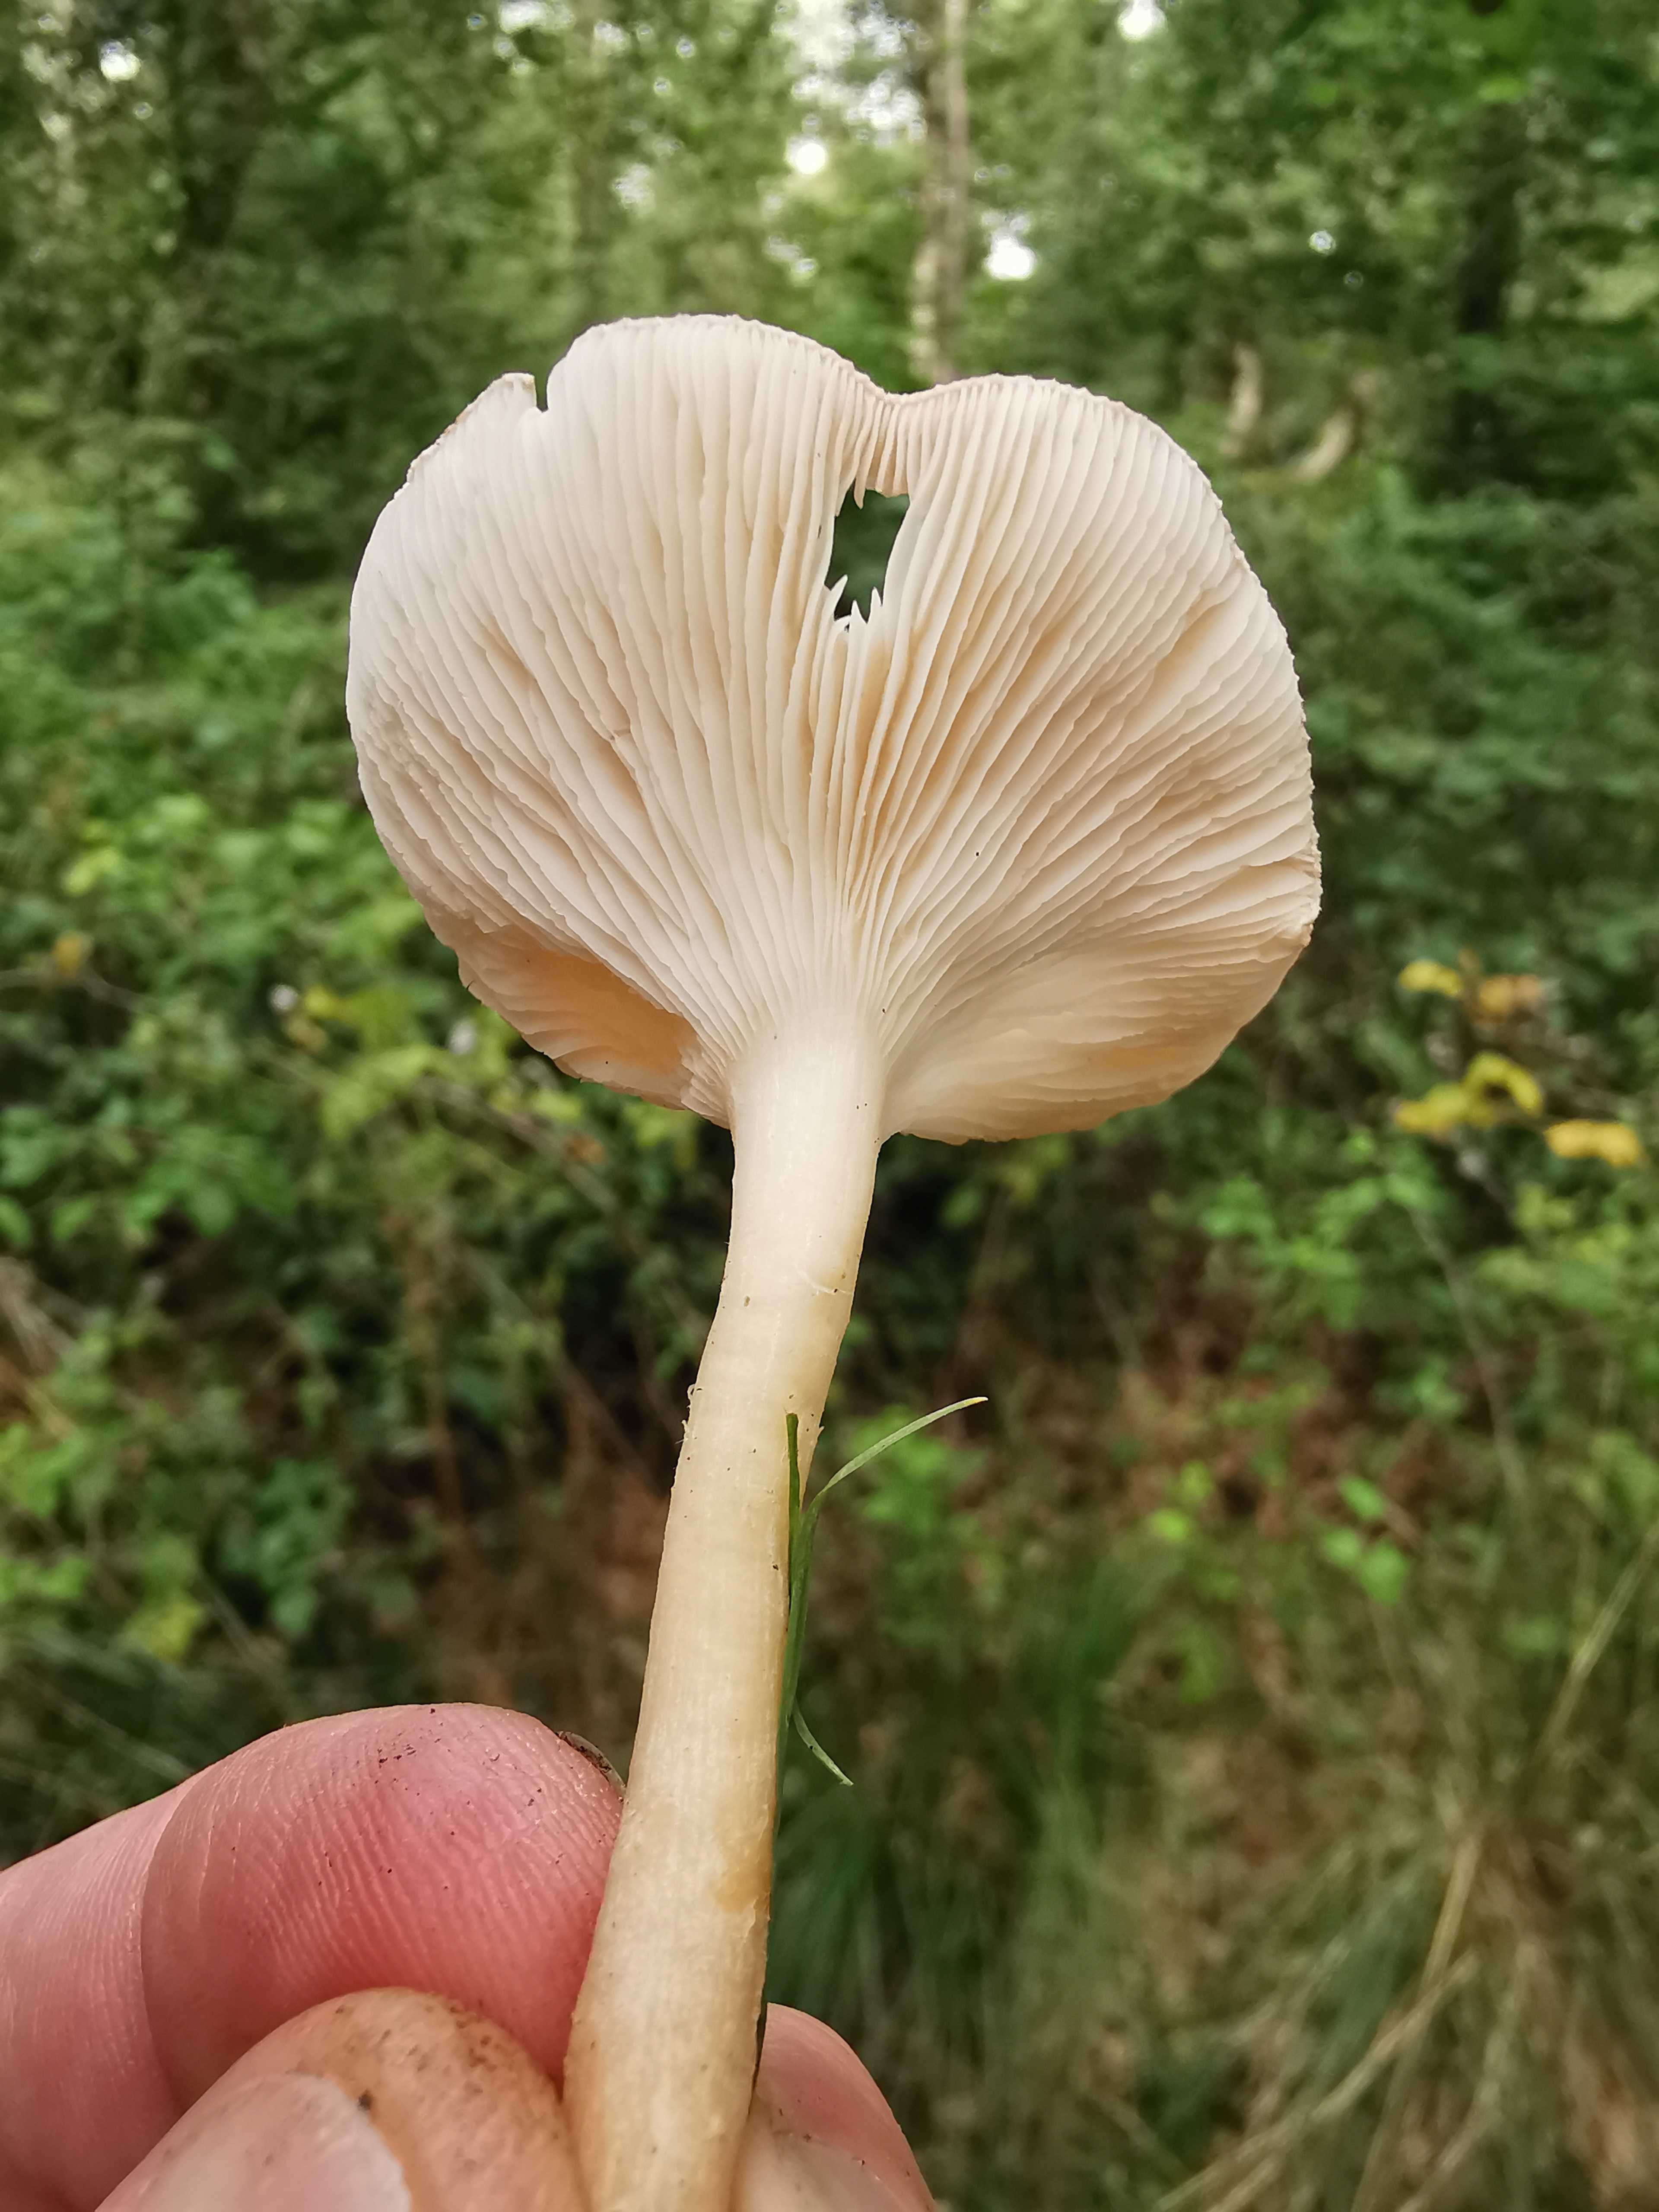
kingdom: Fungi
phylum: Basidiomycota
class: Agaricomycetes
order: Agaricales
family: Tricholomataceae
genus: Infundibulicybe
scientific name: Infundibulicybe gibba
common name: almindelig tragthat
